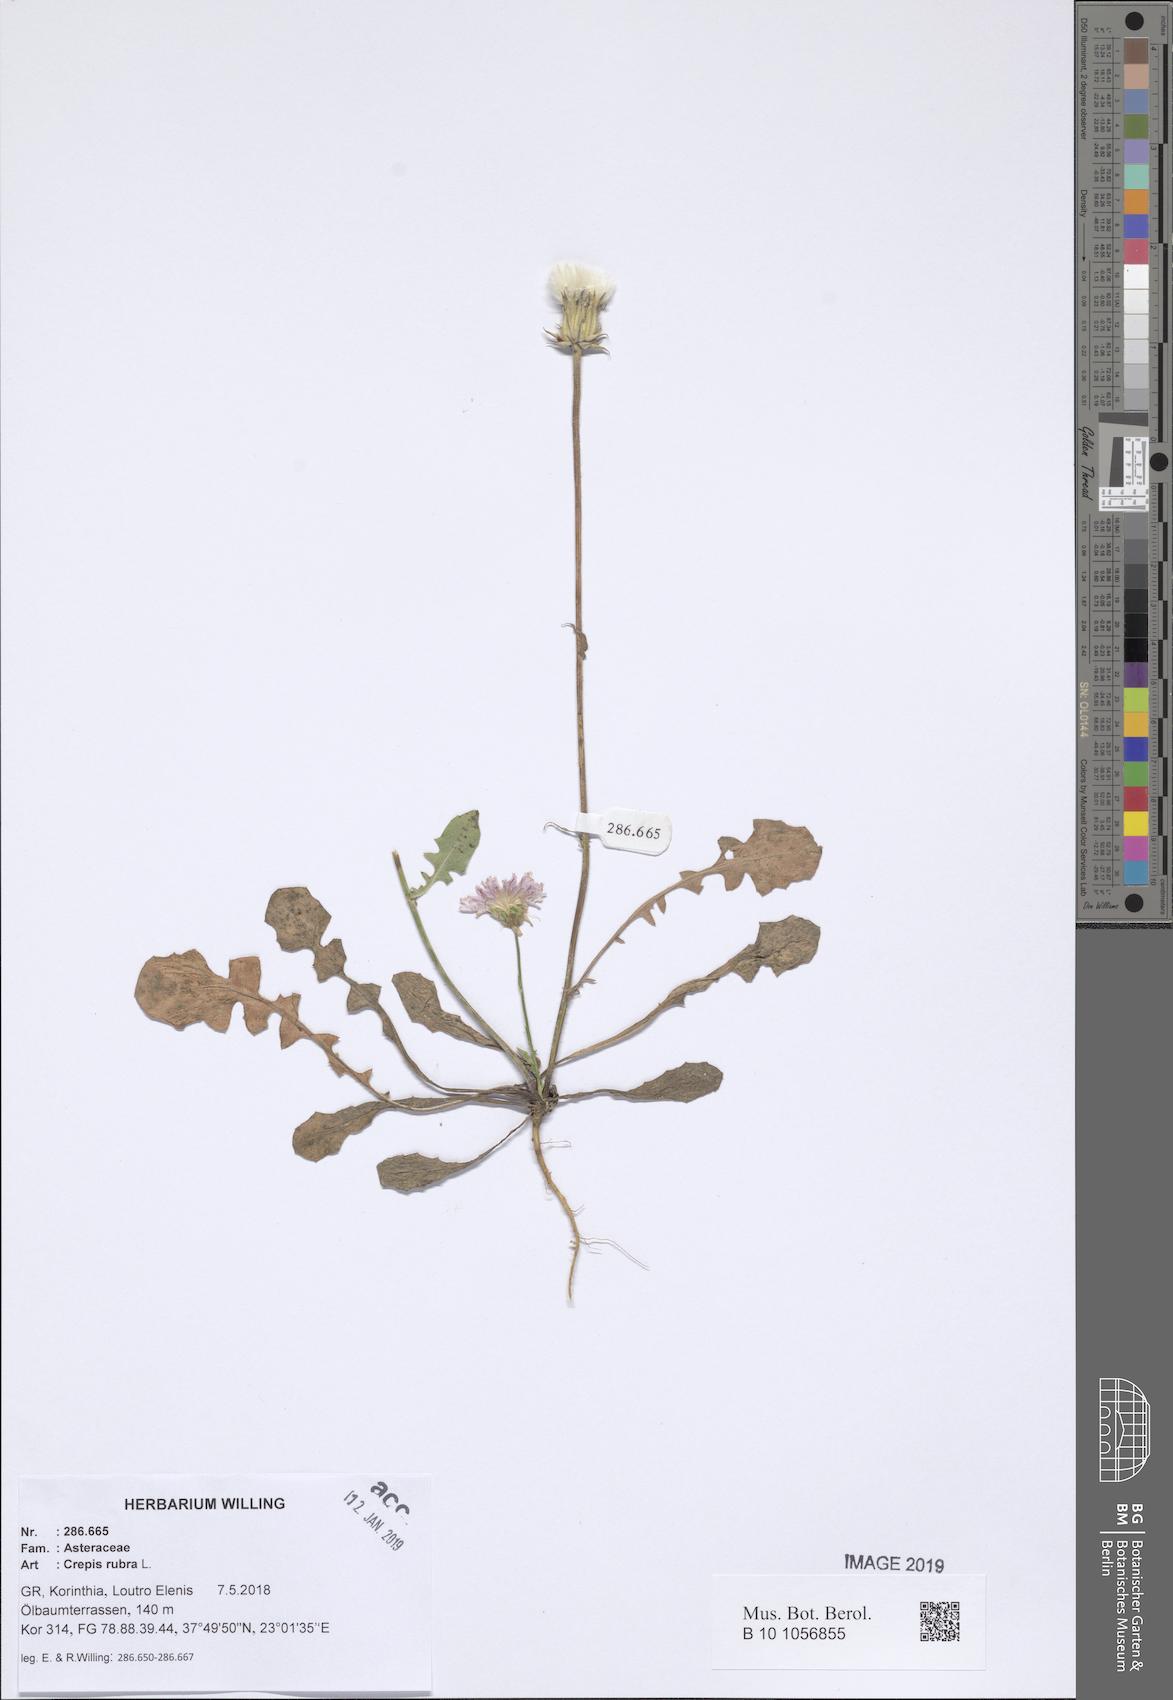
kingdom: Plantae
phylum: Tracheophyta
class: Magnoliopsida
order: Asterales
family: Asteraceae
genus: Crepis
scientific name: Crepis rubra
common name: Pink hawk's-beard
